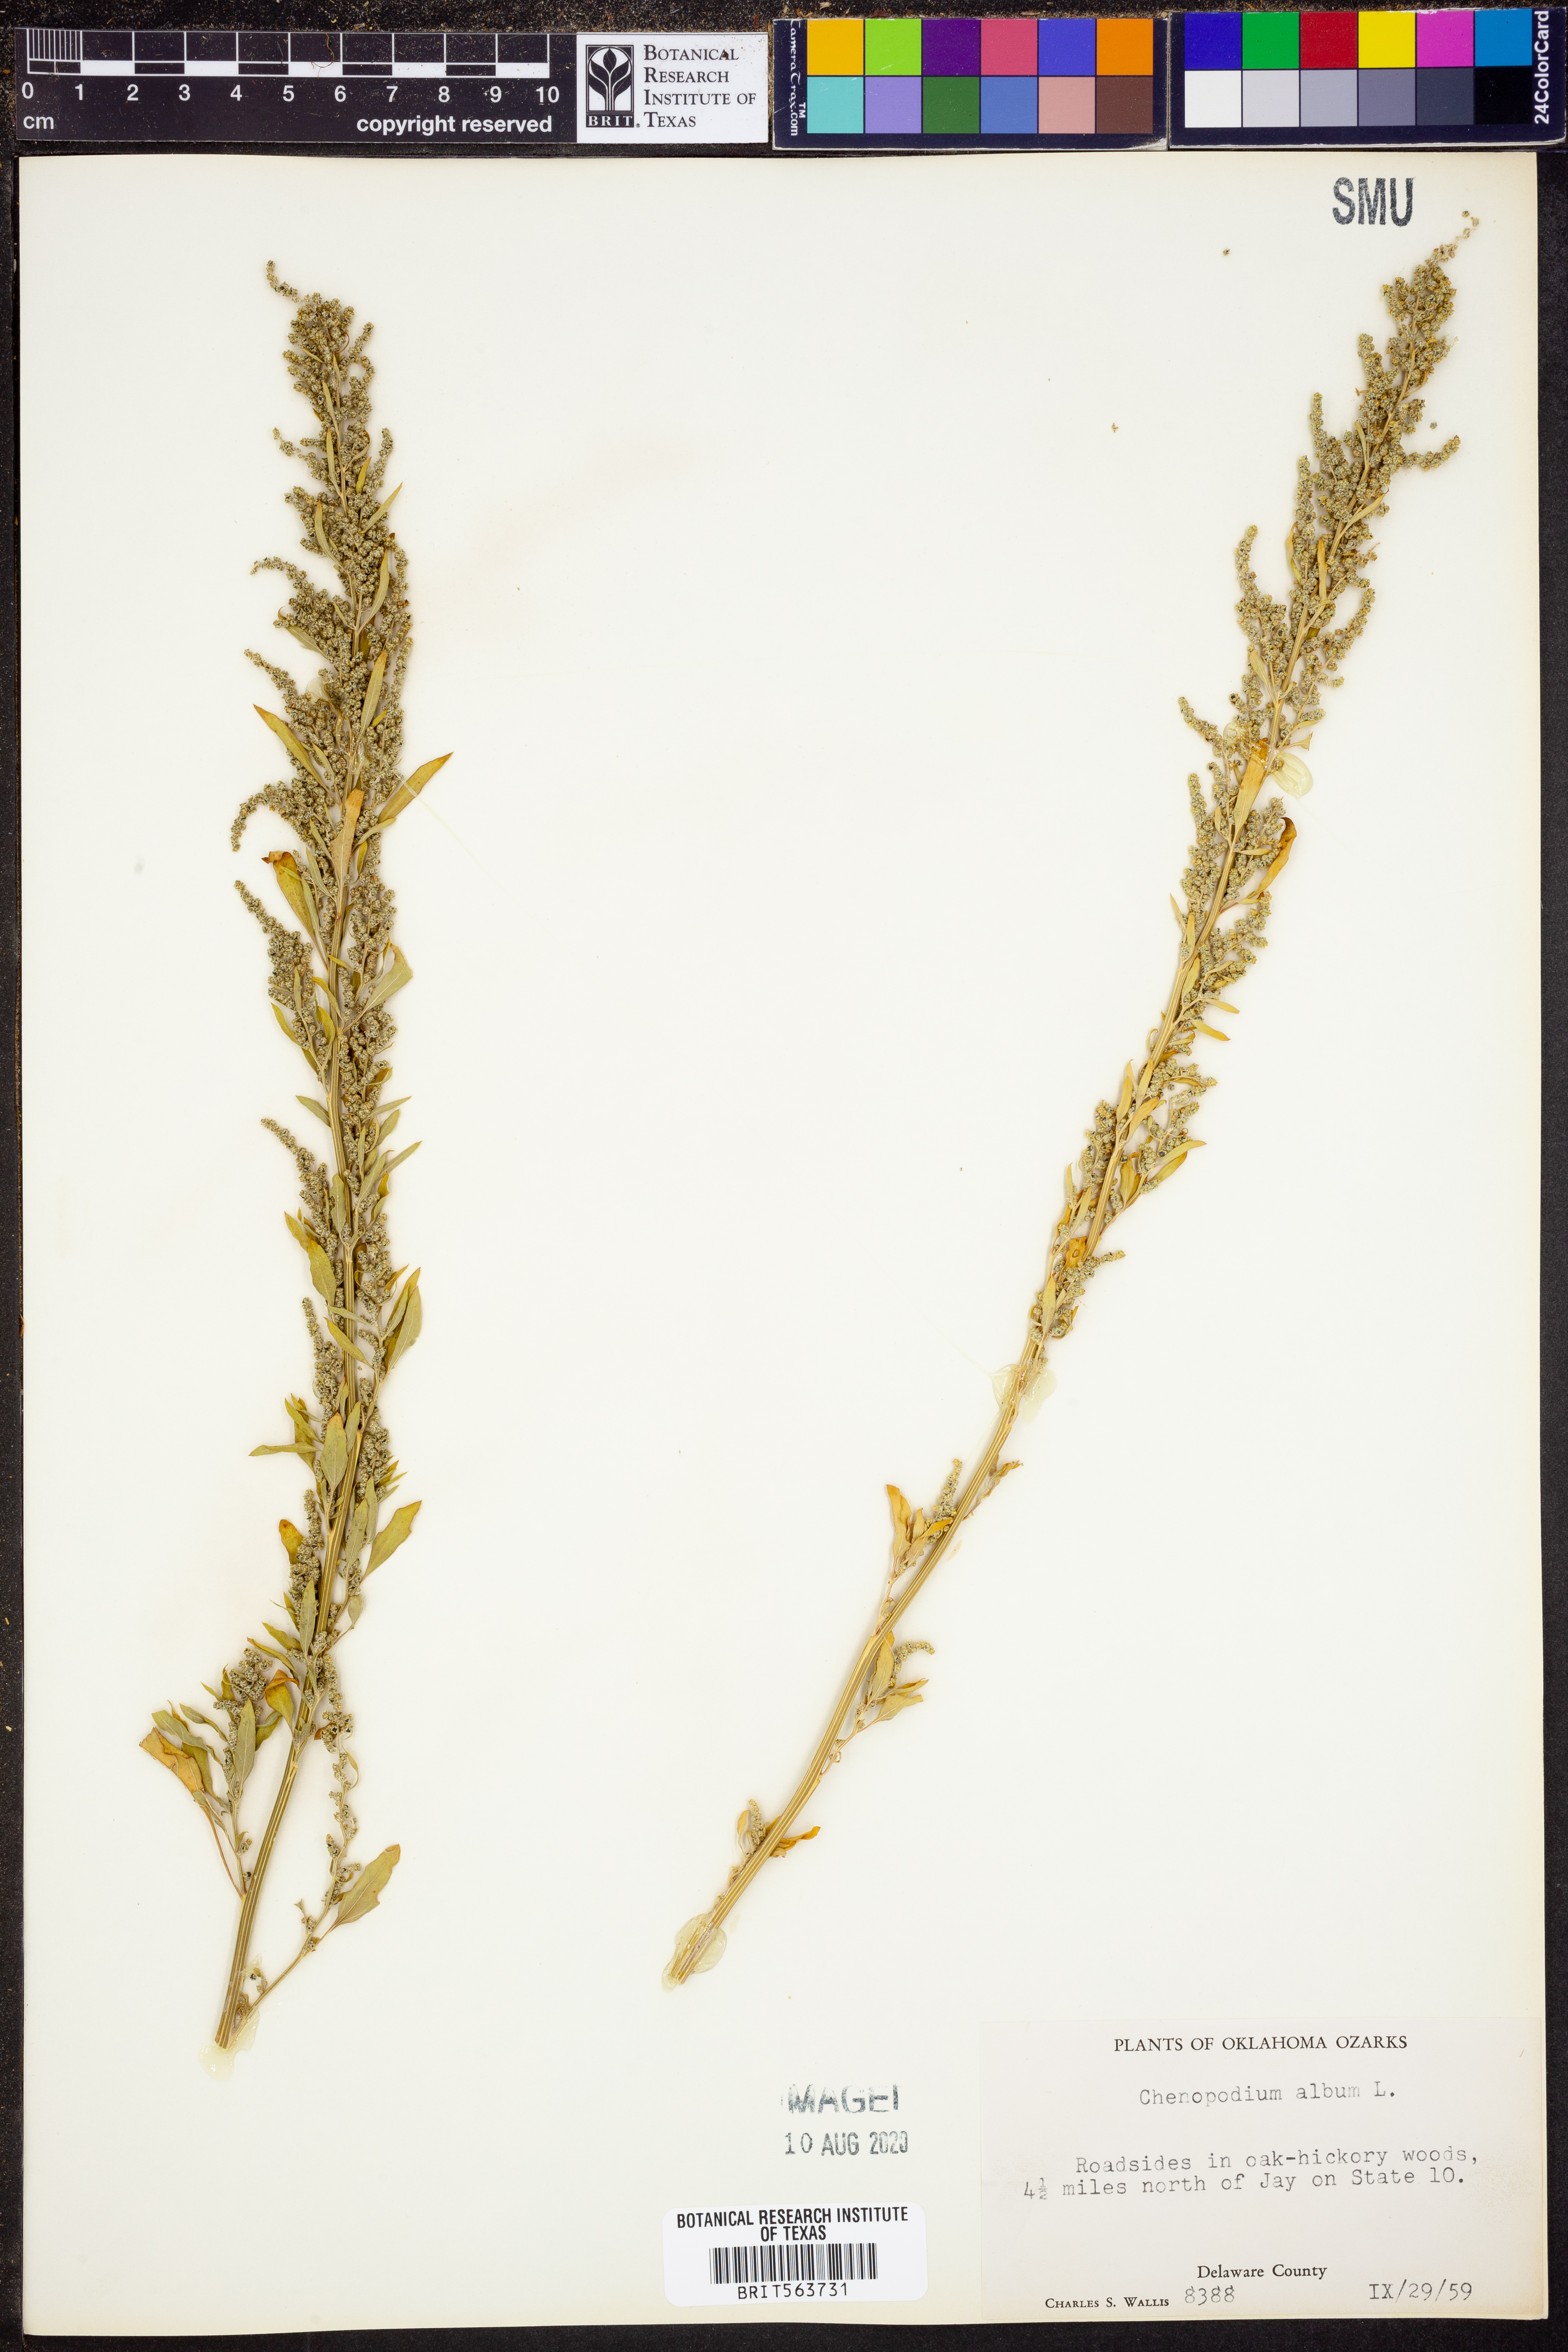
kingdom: Plantae
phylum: Tracheophyta
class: Magnoliopsida
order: Caryophyllales
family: Amaranthaceae
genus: Chenopodium
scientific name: Chenopodium album
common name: Fat-hen
